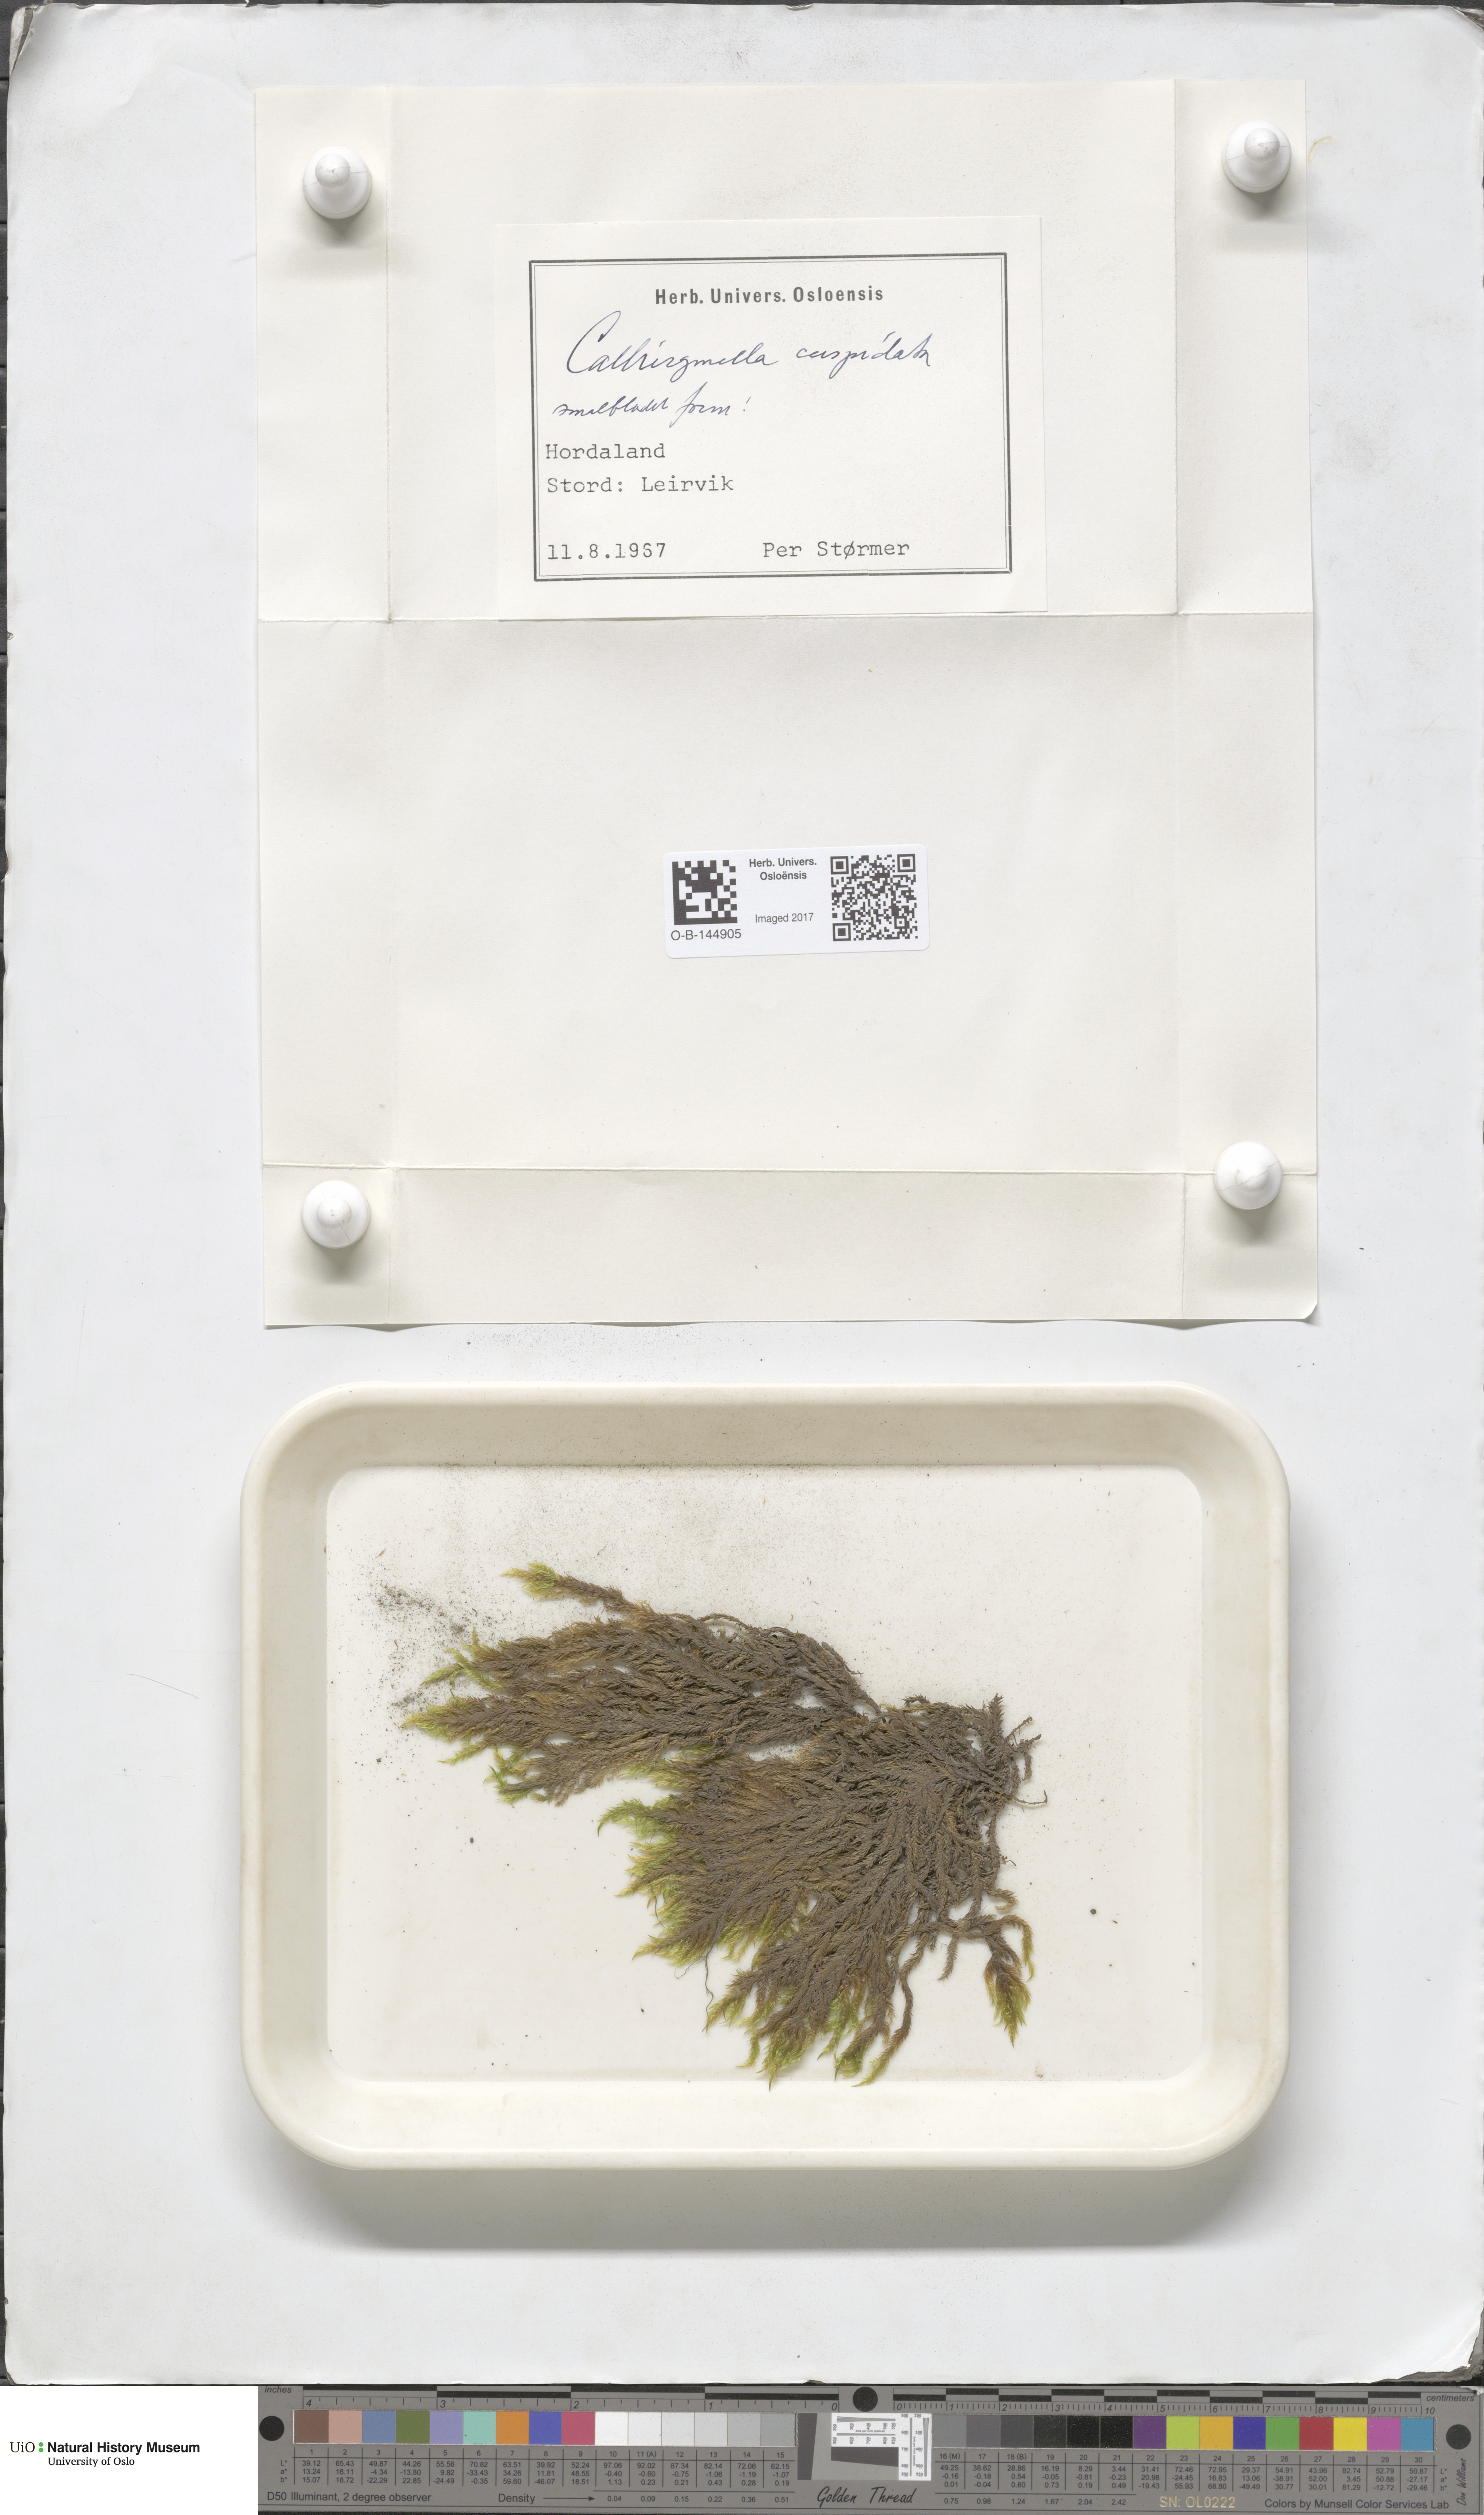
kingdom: Plantae
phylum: Bryophyta
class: Bryopsida
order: Hypnales
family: Pylaisiaceae
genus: Calliergonella
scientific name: Calliergonella cuspidata
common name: Common large wetland moss
